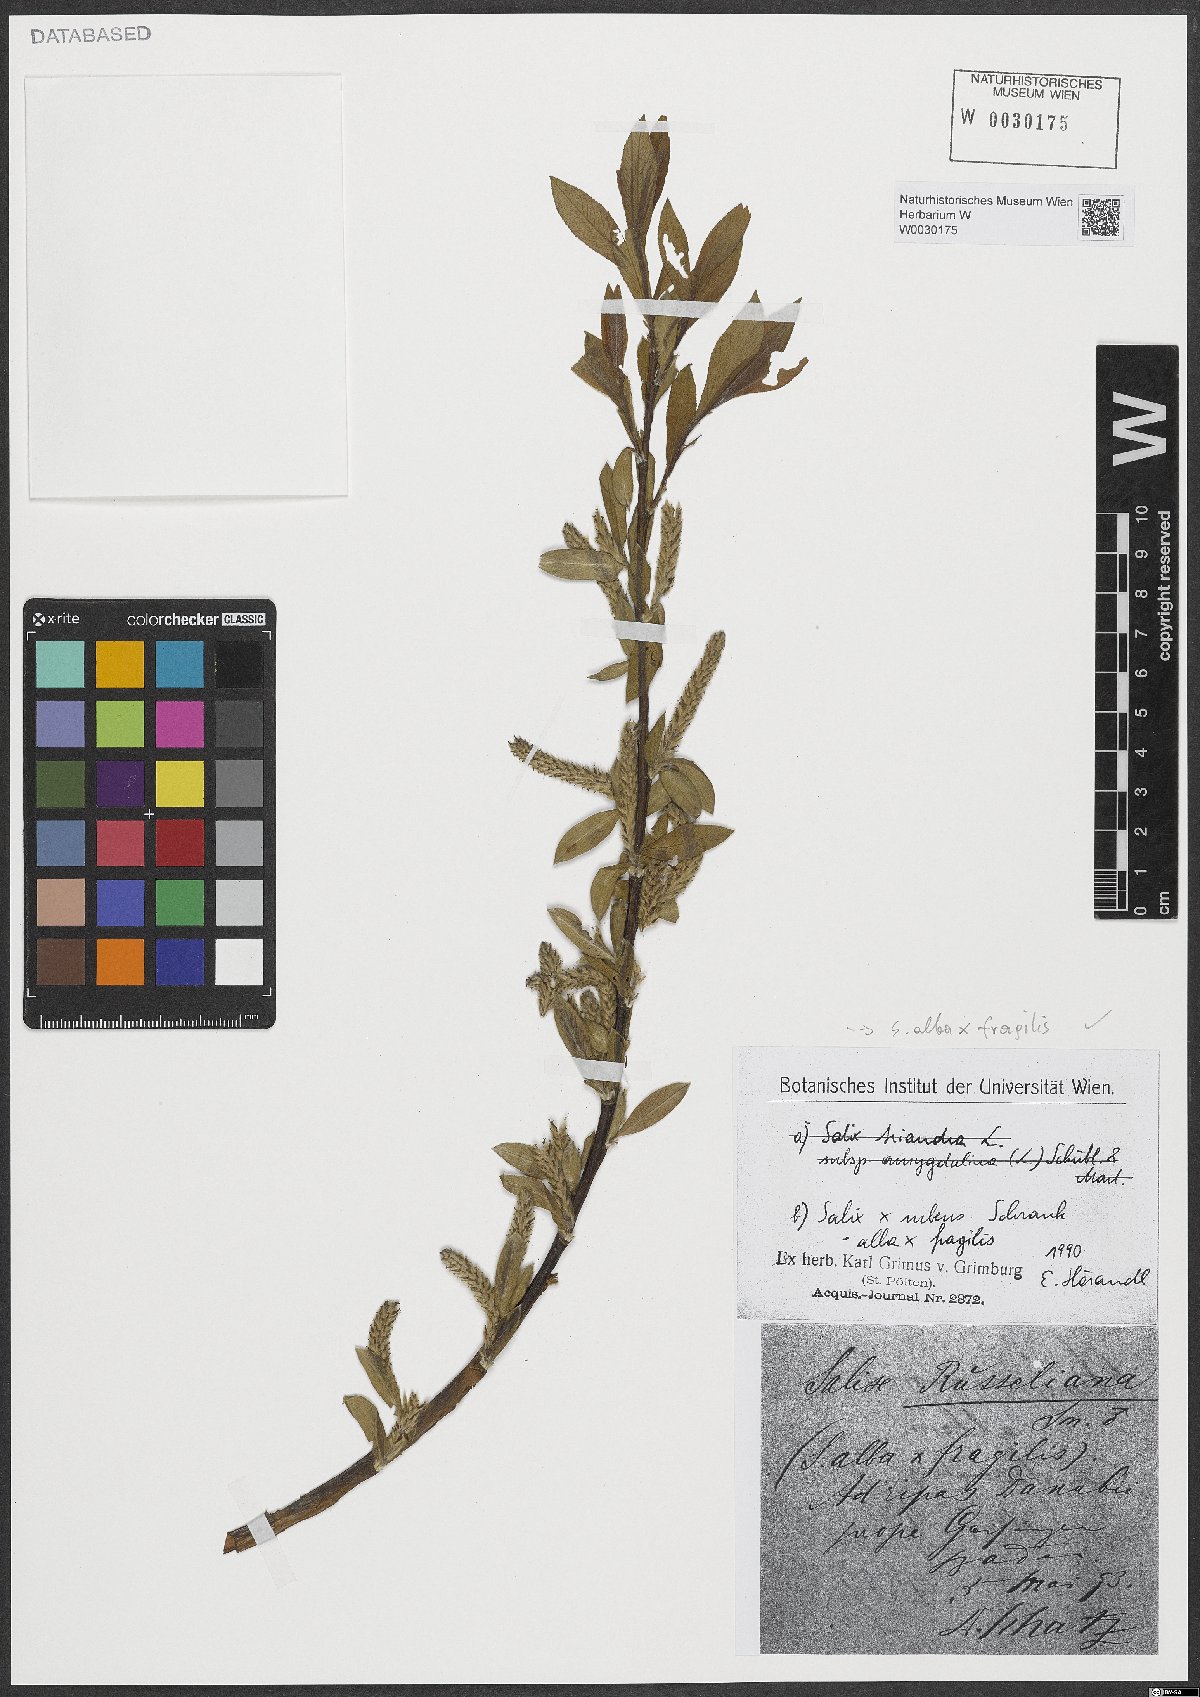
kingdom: Plantae
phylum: Tracheophyta
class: Magnoliopsida
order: Malpighiales
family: Salicaceae
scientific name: Salicaceae
